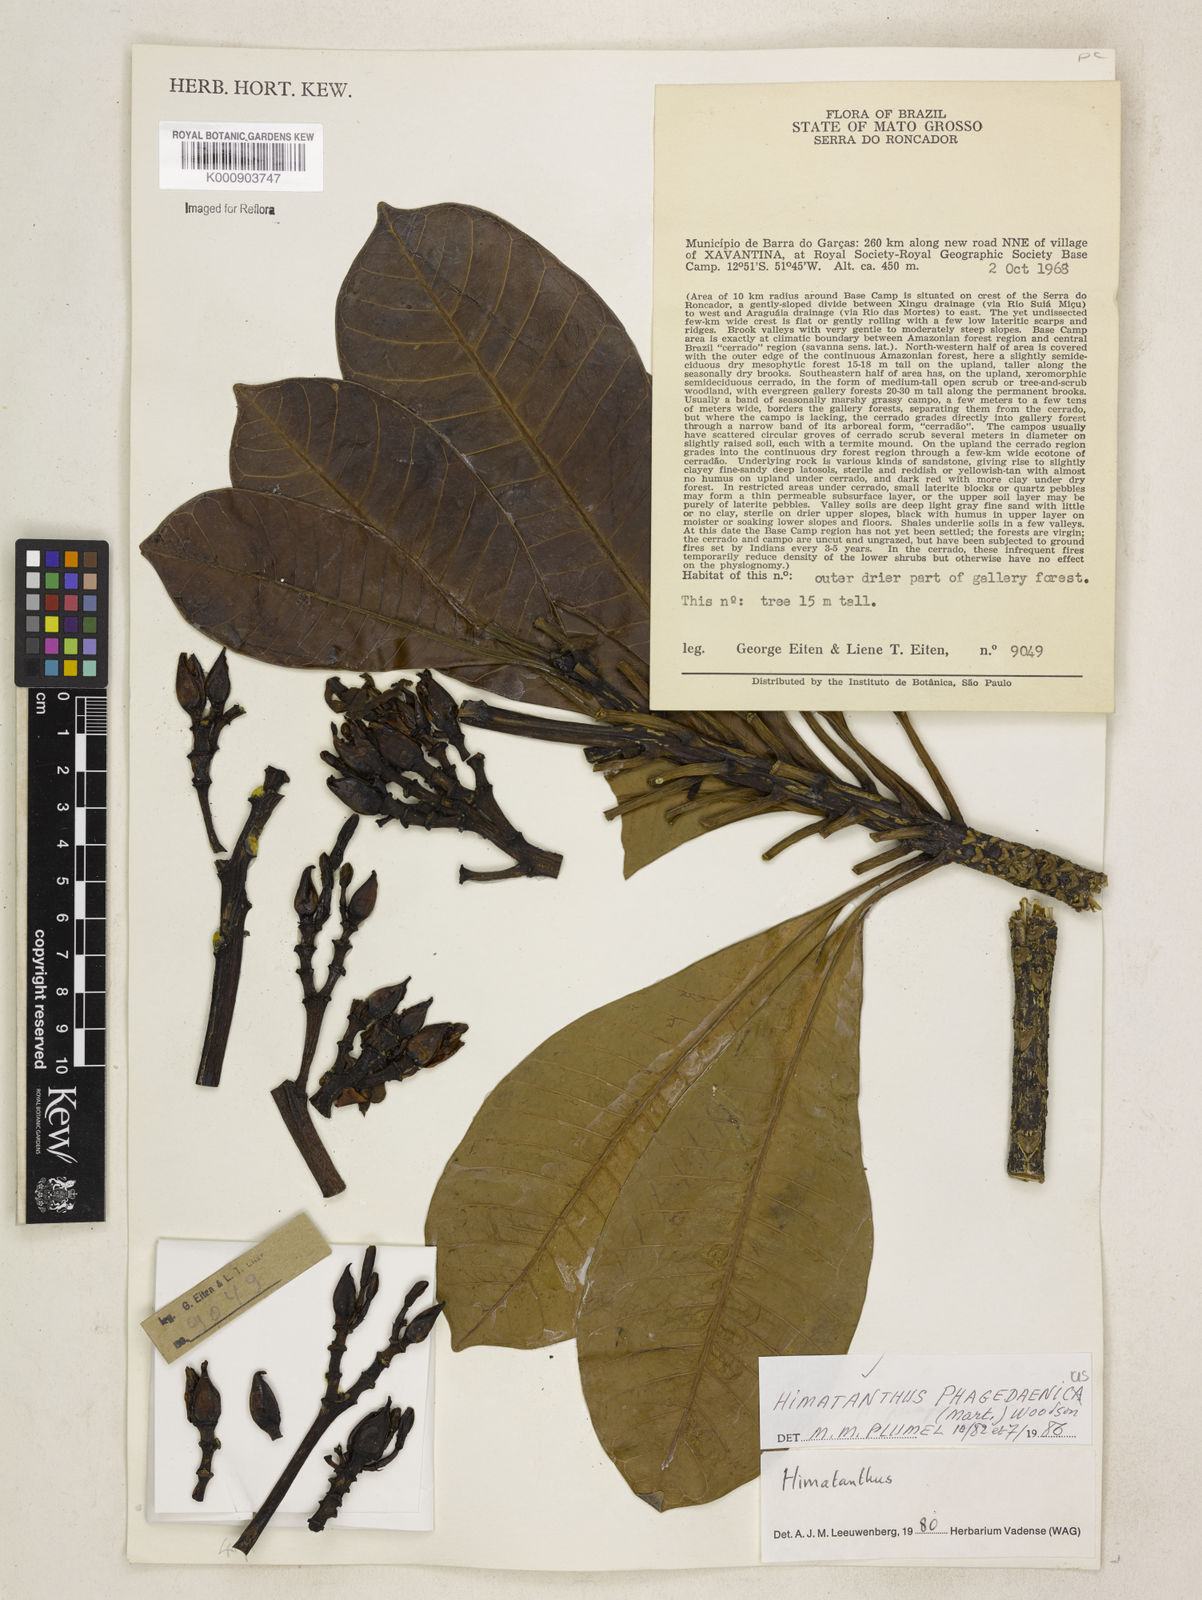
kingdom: Plantae
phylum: Tracheophyta
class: Magnoliopsida
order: Gentianales
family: Apocynaceae
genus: Himatanthus
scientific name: Himatanthus phagedaenicus
